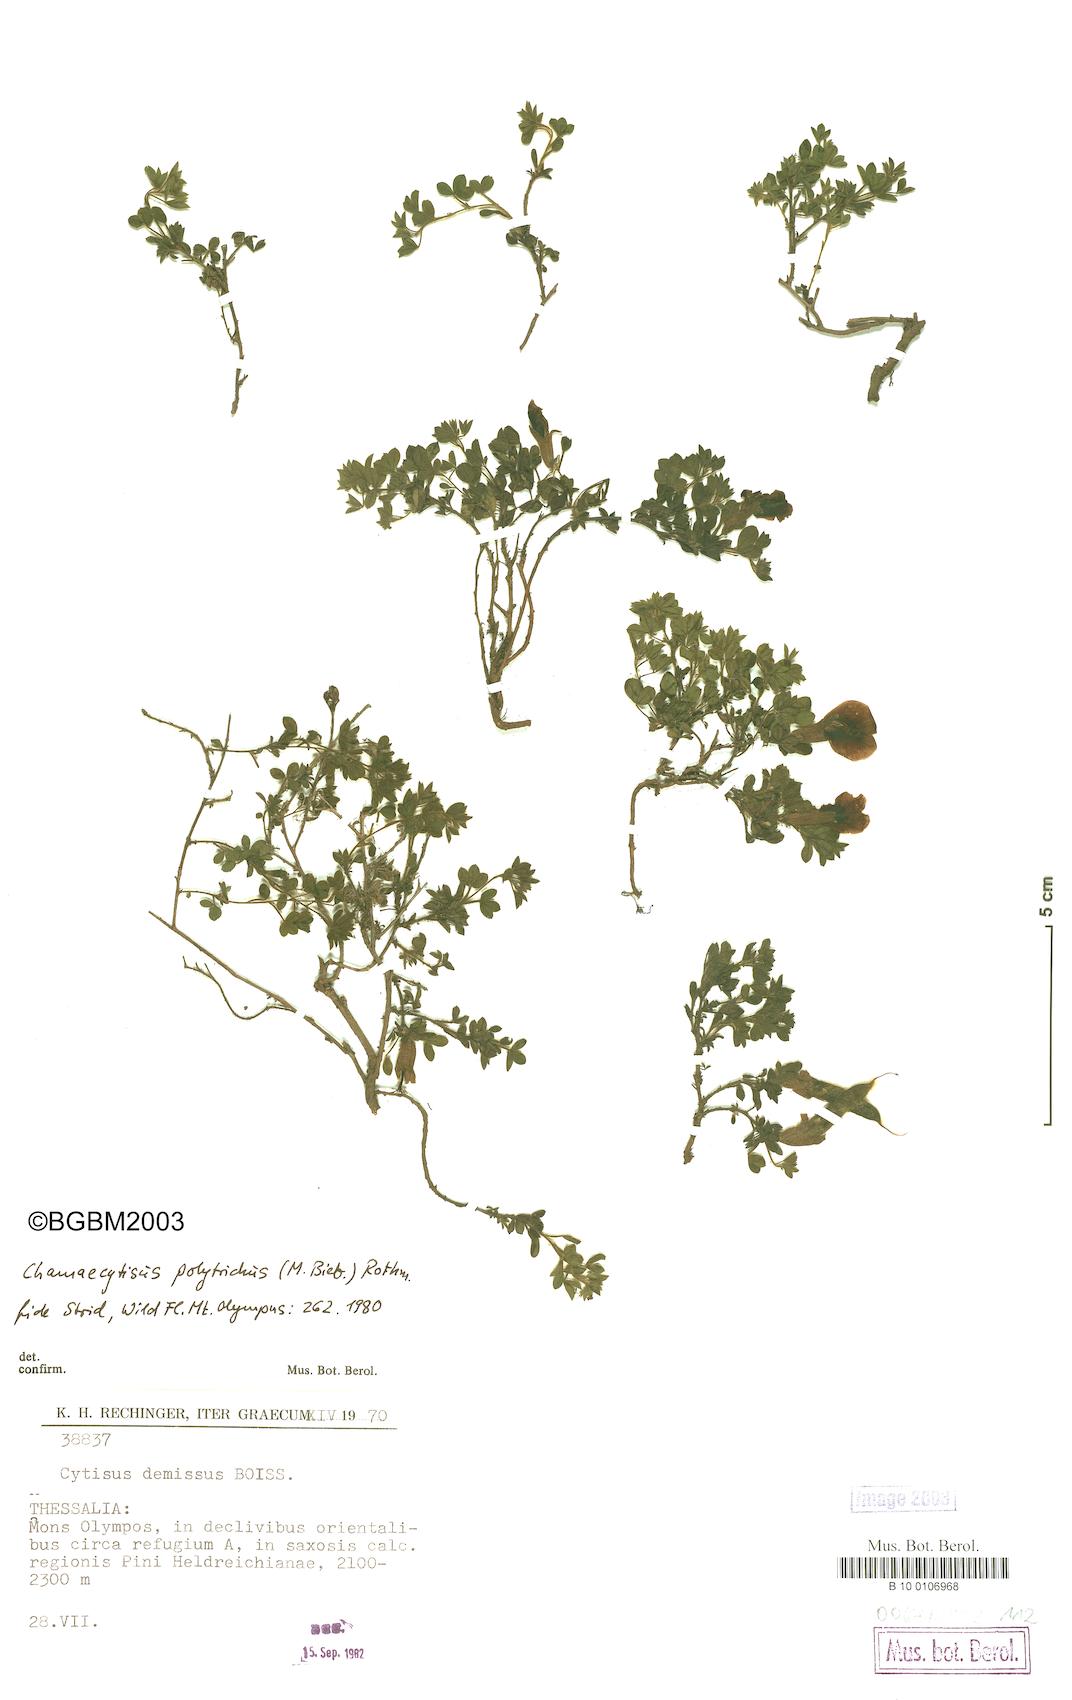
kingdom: Plantae
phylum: Tracheophyta
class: Magnoliopsida
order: Fabales
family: Fabaceae
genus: Chamaecytisus
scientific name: Chamaecytisus hirsutus
